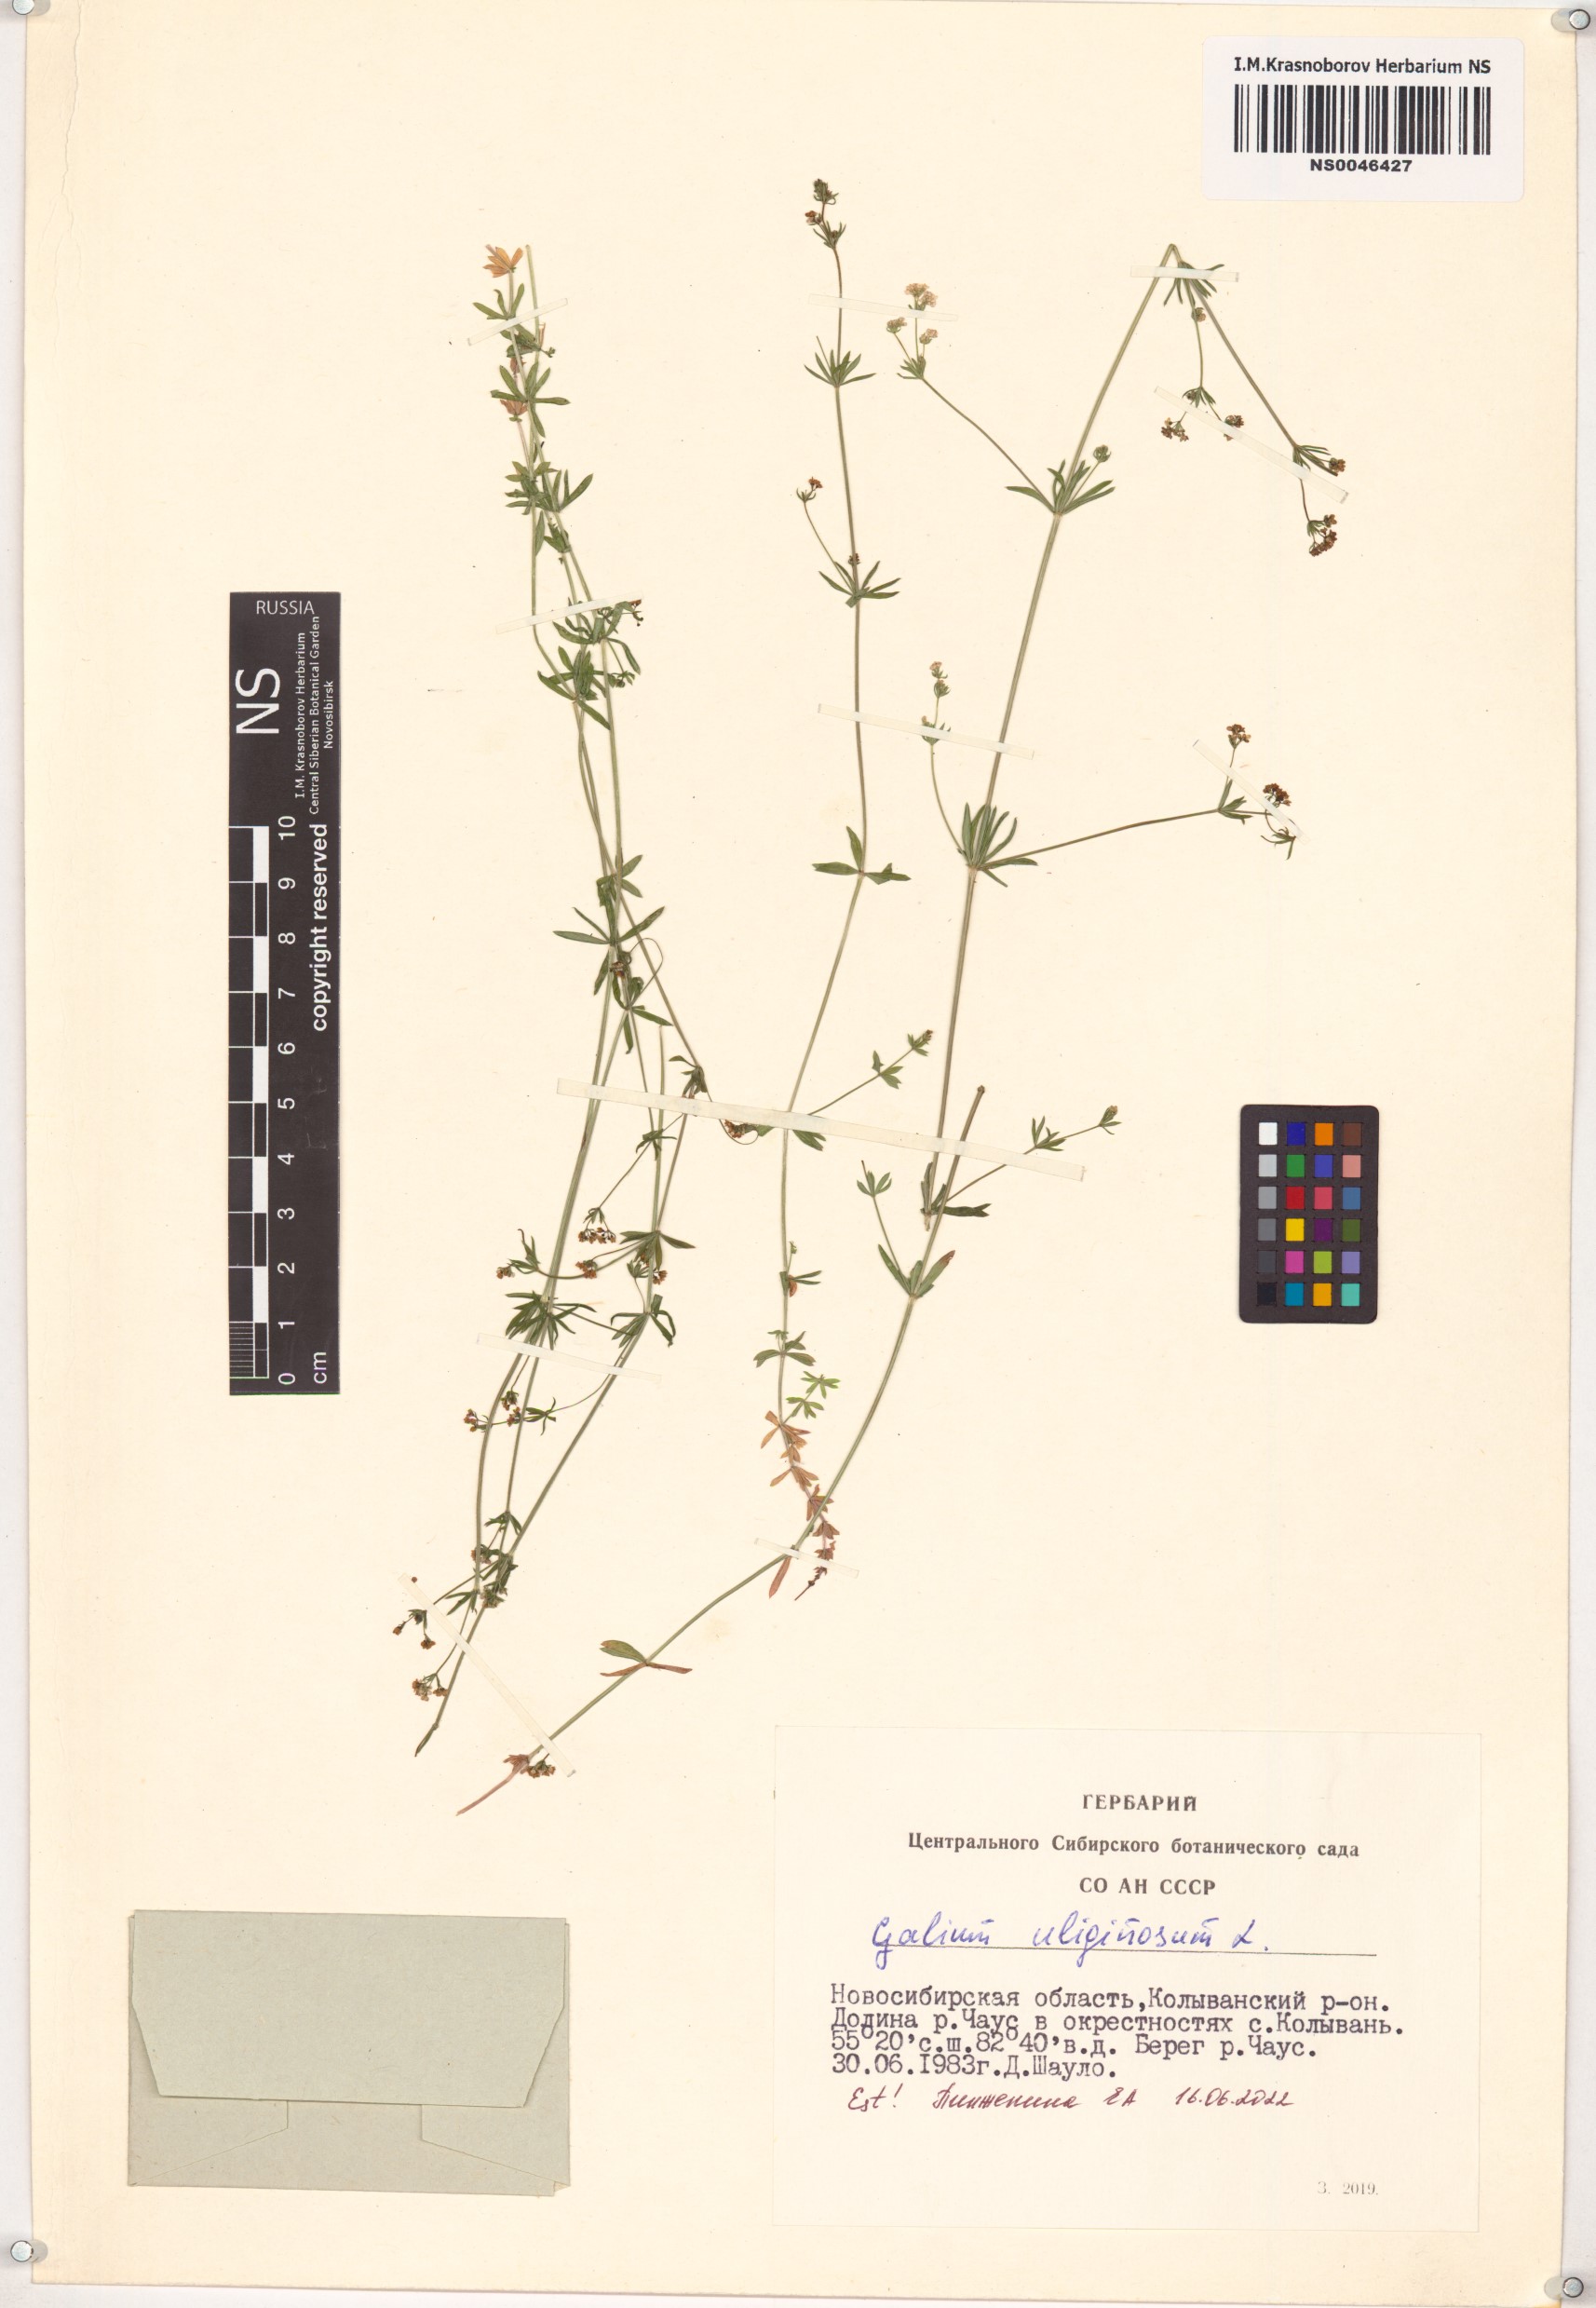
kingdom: Plantae
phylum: Tracheophyta
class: Magnoliopsida
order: Gentianales
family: Rubiaceae
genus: Galium
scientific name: Galium uliginosum
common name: Fen bedstraw
